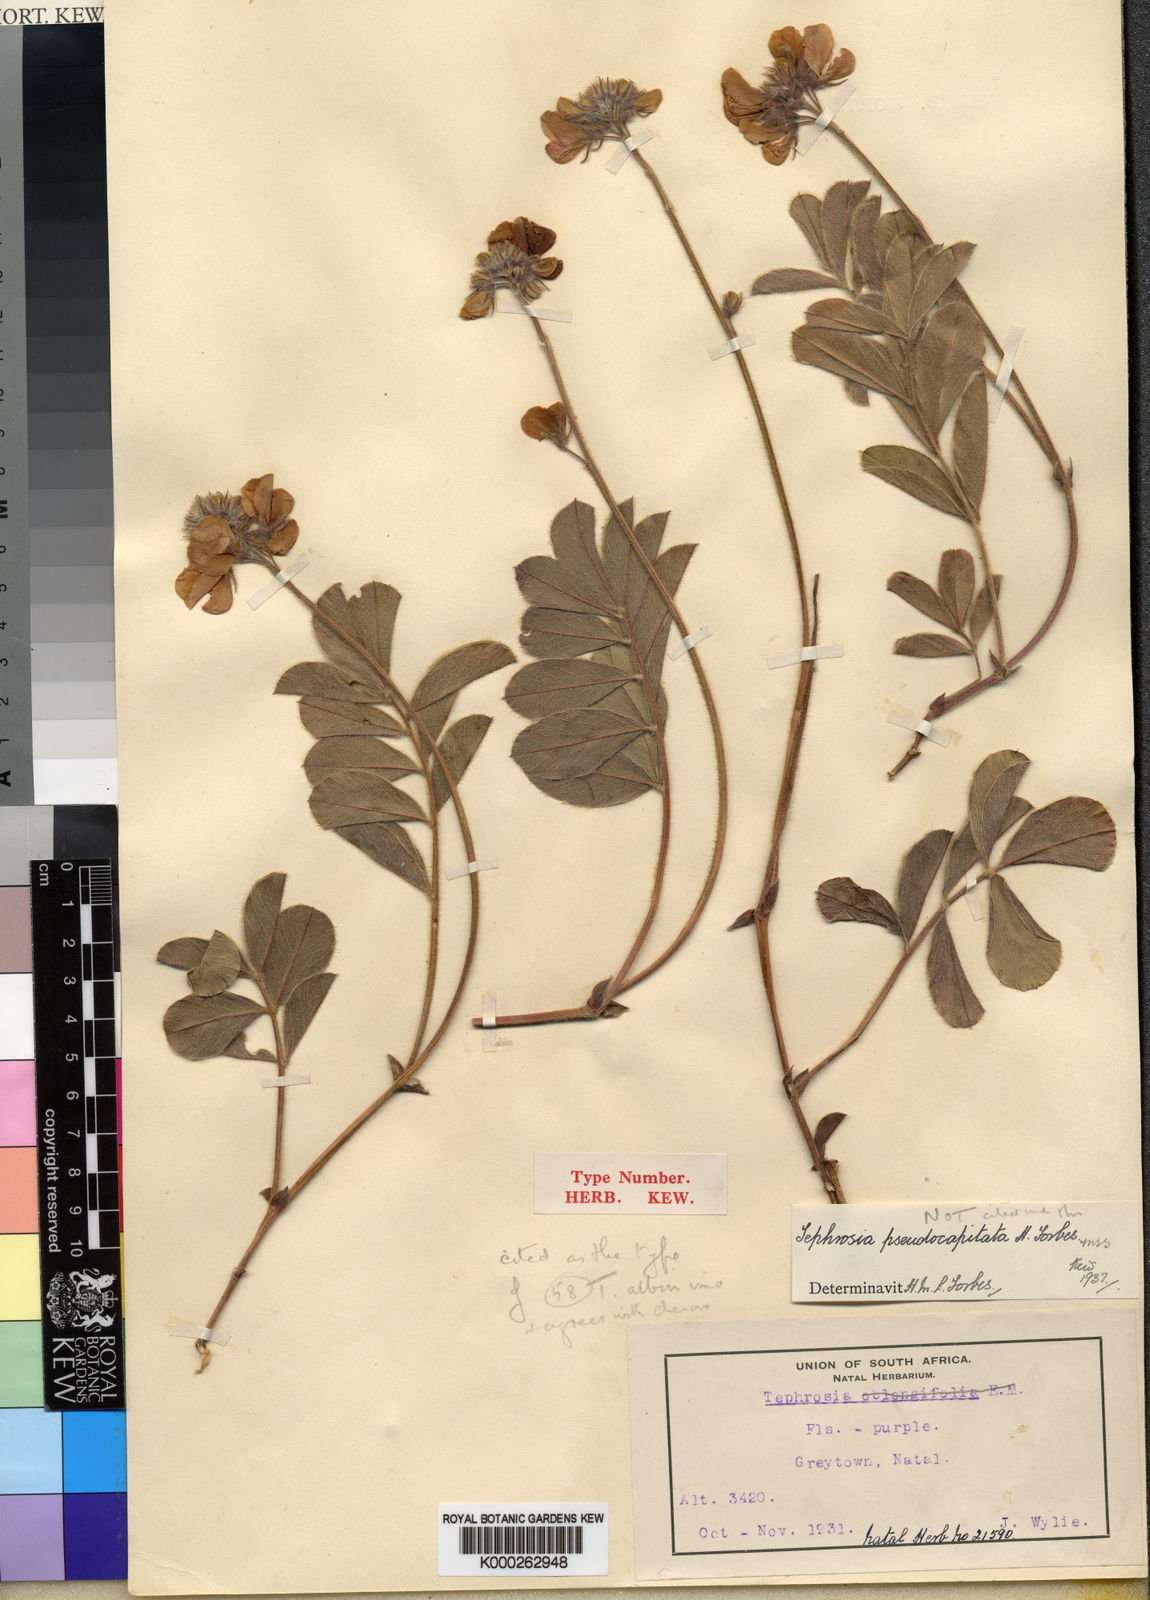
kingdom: Plantae
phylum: Tracheophyta
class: Magnoliopsida
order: Fabales
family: Fabaceae
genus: Tephrosia
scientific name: Tephrosia albissima
